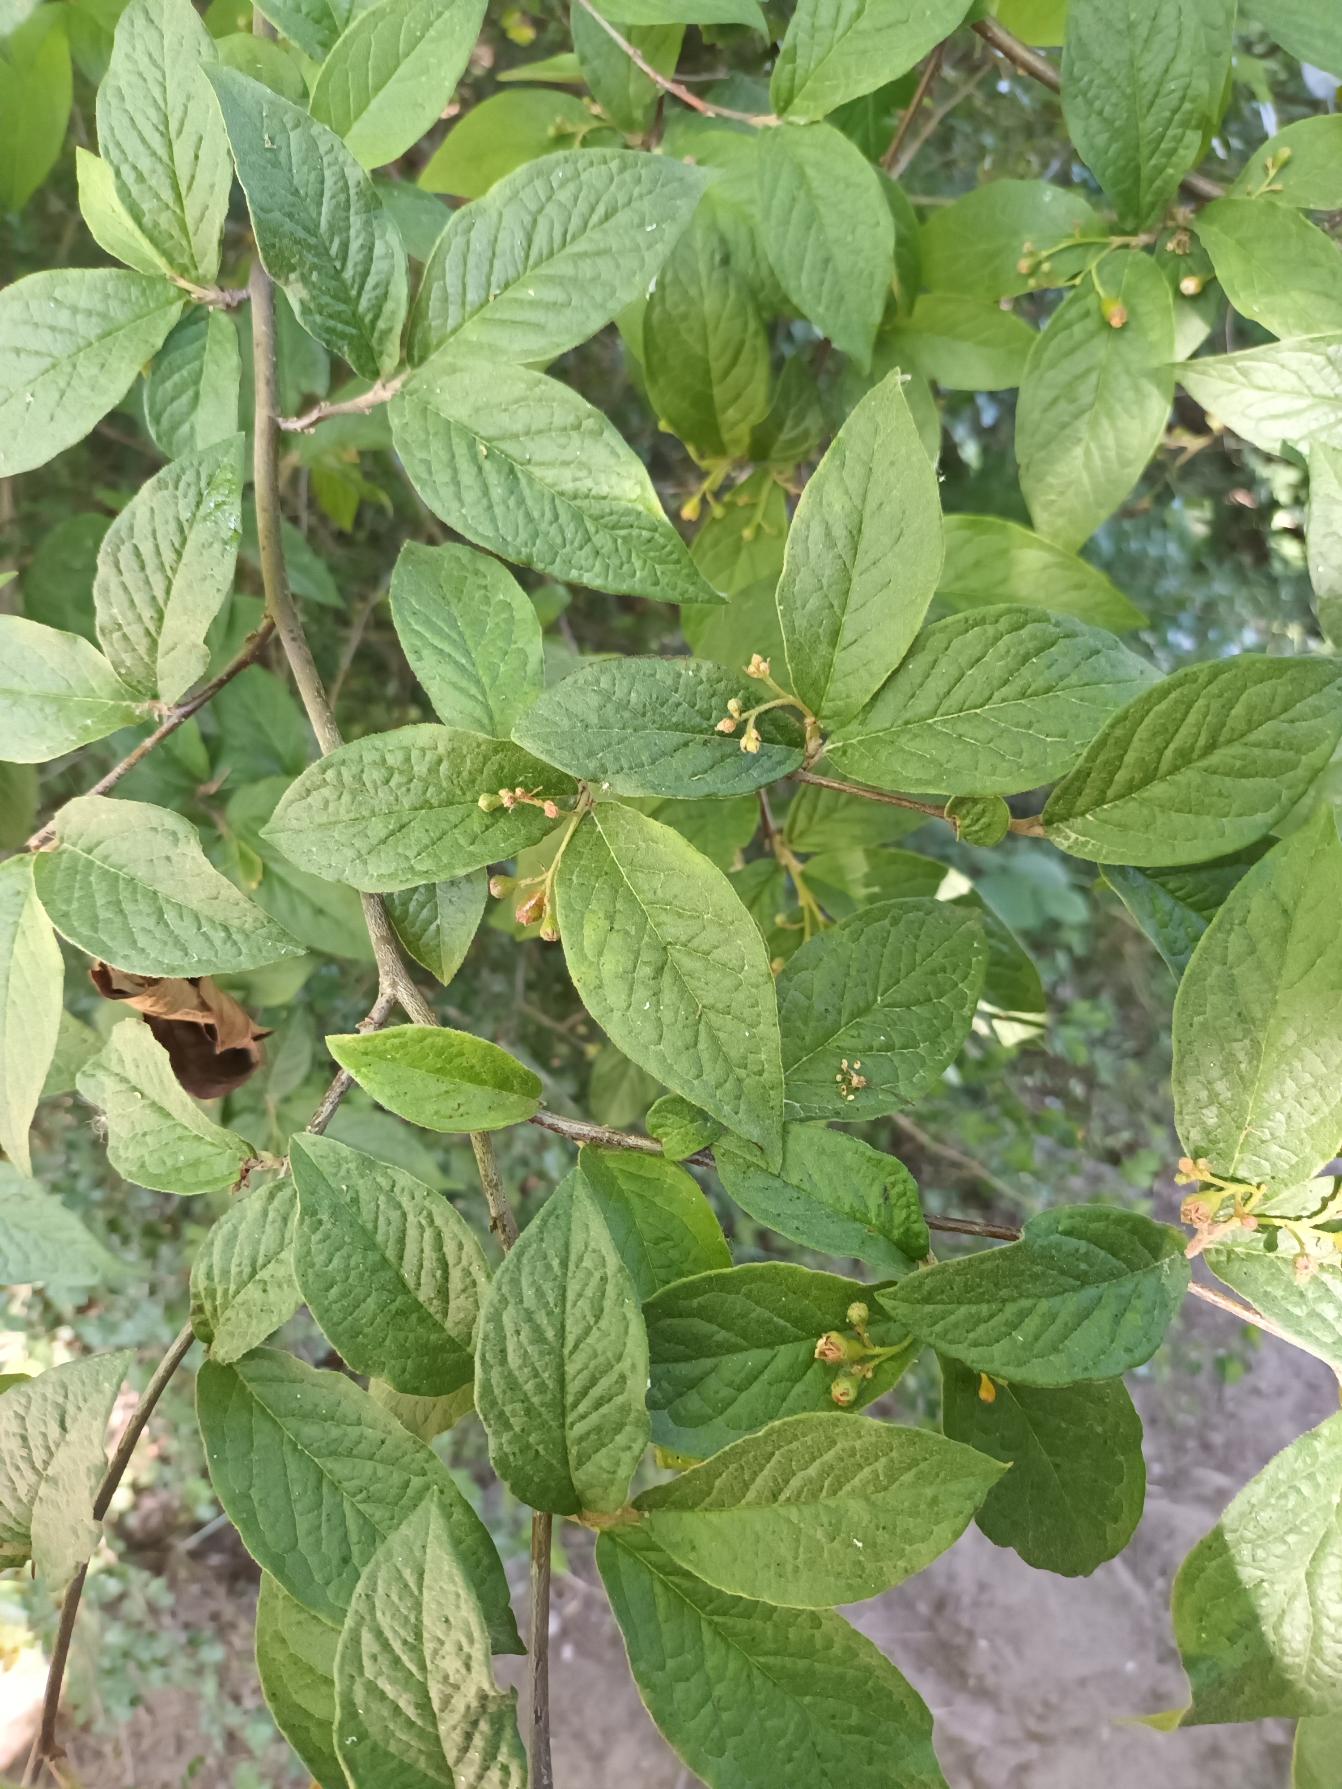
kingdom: Plantae
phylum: Tracheophyta
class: Magnoliopsida
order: Rosales
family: Rosaceae
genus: Cotoneaster
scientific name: Cotoneaster bullatus
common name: Storbladet dværgmispel
